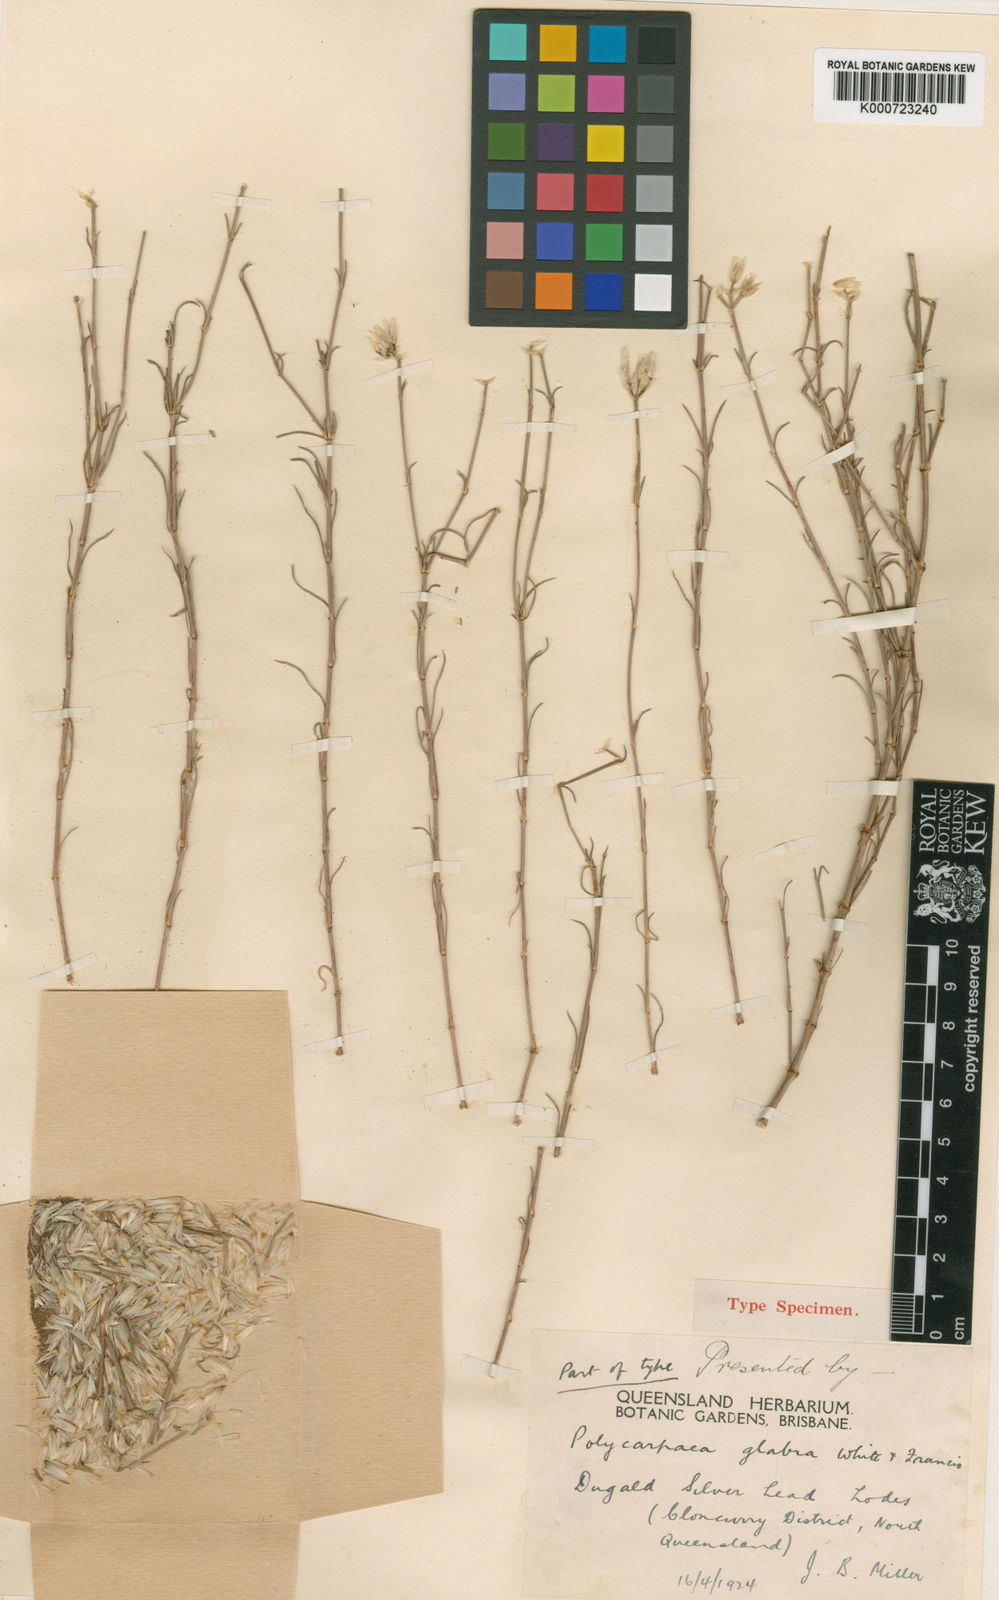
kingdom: Plantae
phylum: Tracheophyta
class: Magnoliopsida
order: Caryophyllales
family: Caryophyllaceae
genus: Polycarpaea
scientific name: Polycarpaea spirostylis
